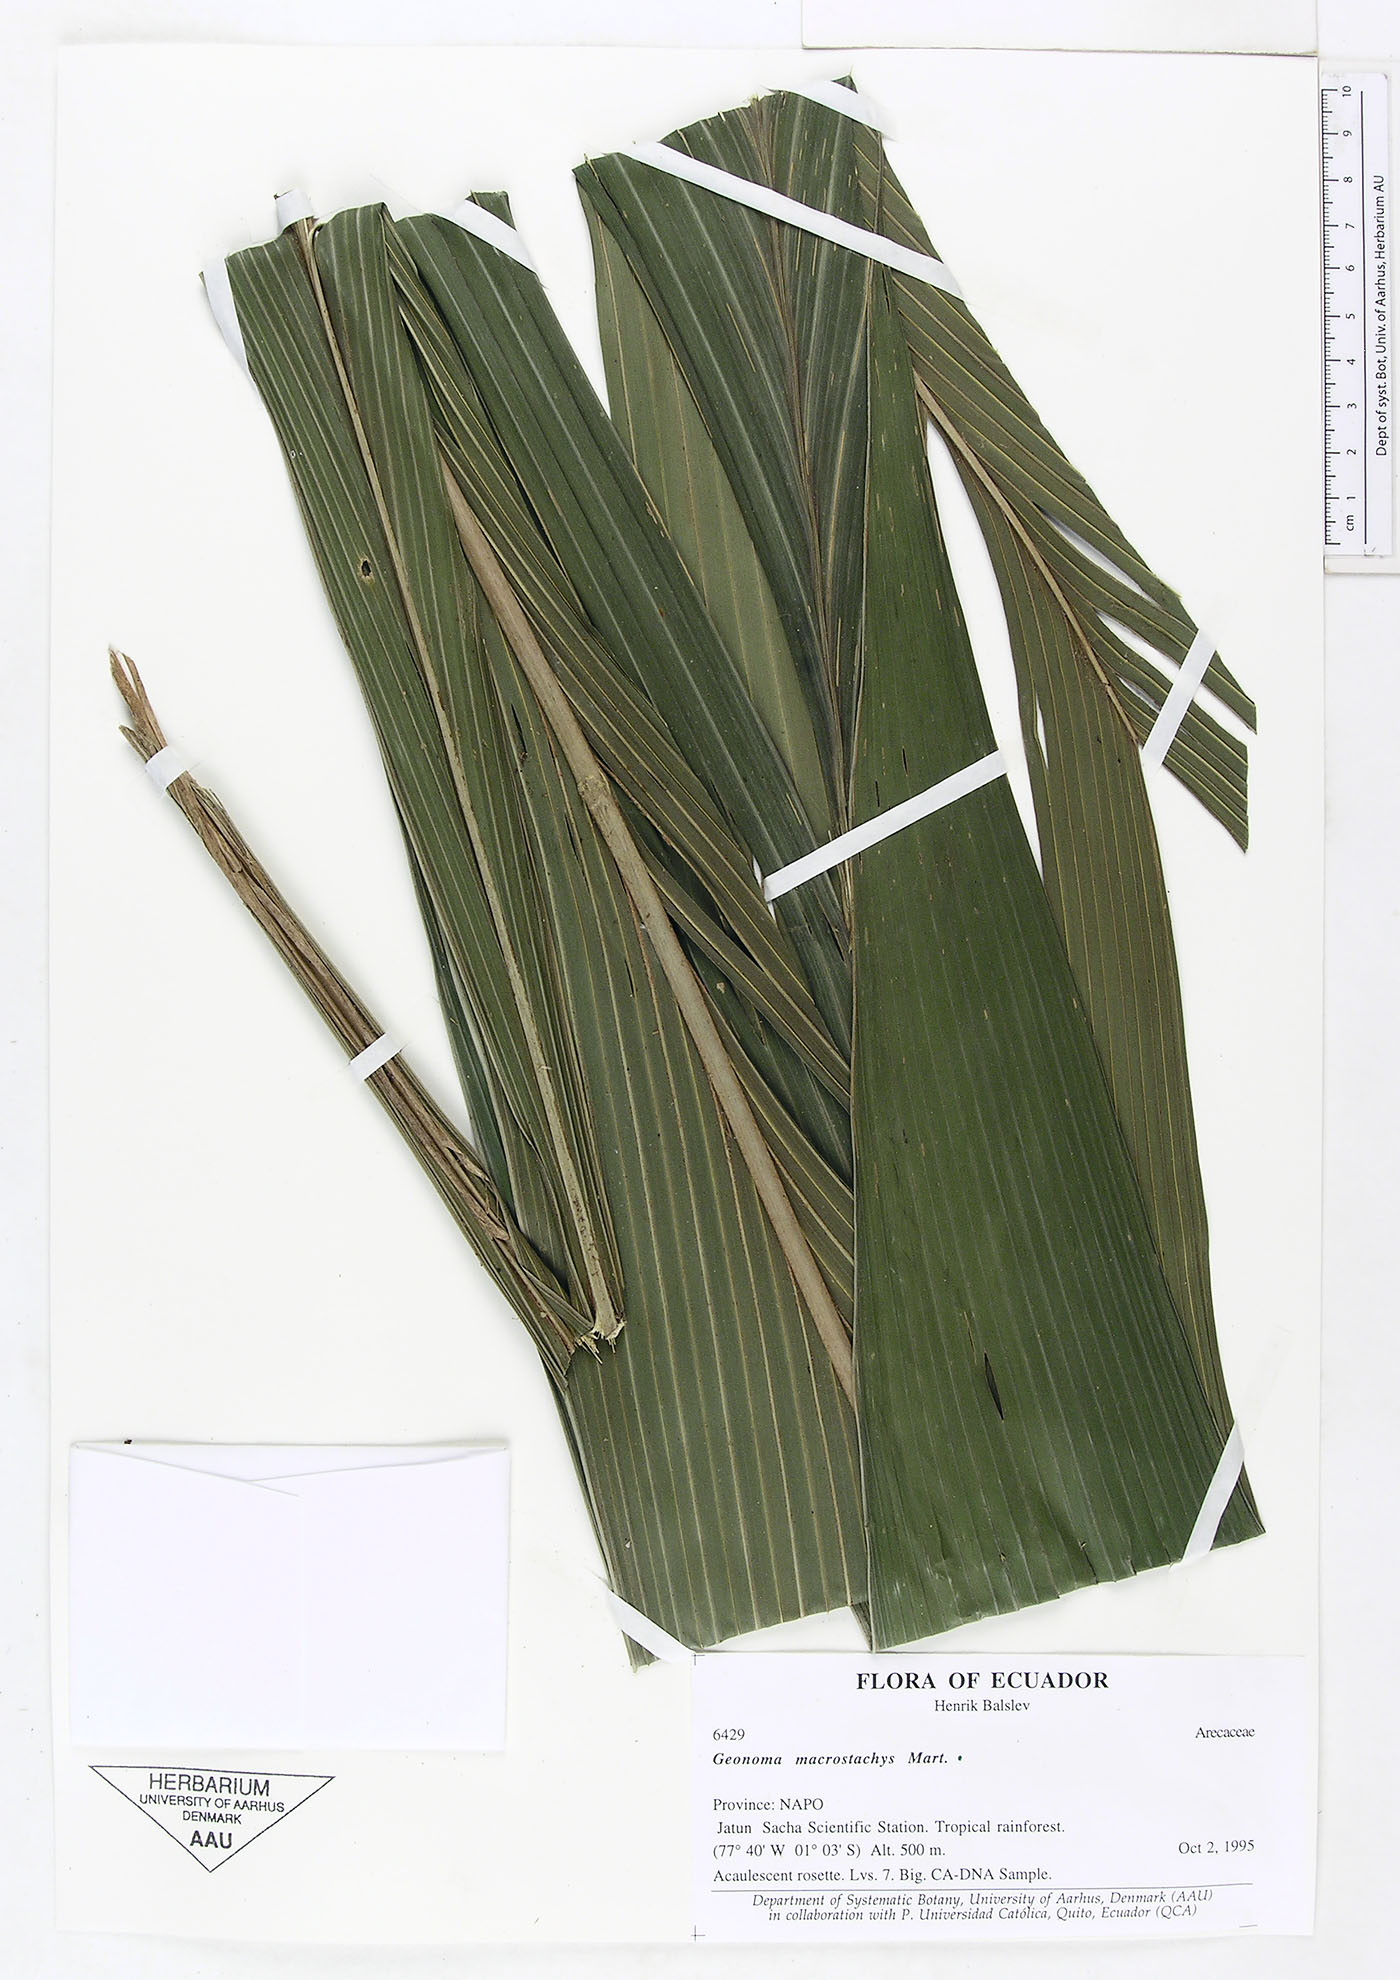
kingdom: Plantae
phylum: Tracheophyta
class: Liliopsida
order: Arecales
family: Arecaceae
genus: Geonoma
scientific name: Geonoma macrostachys
